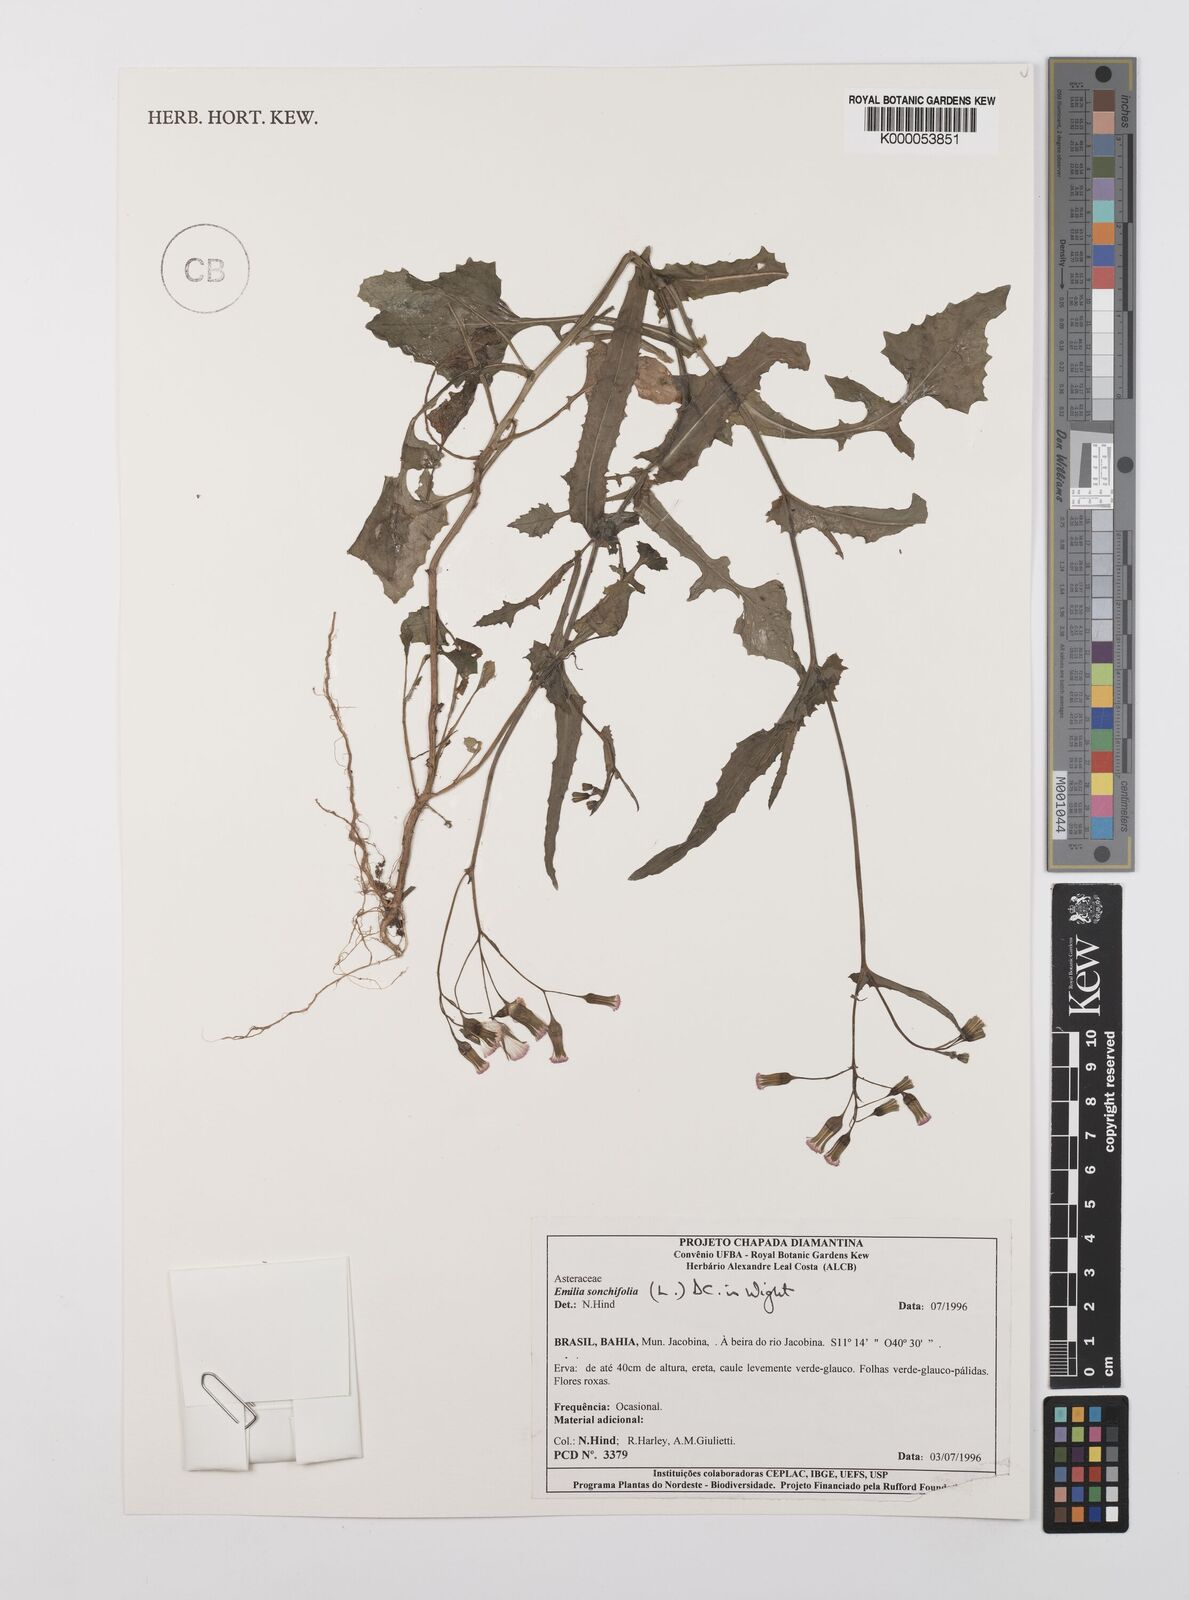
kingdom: Plantae
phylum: Tracheophyta
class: Magnoliopsida
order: Asterales
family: Asteraceae
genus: Emilia
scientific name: Emilia
